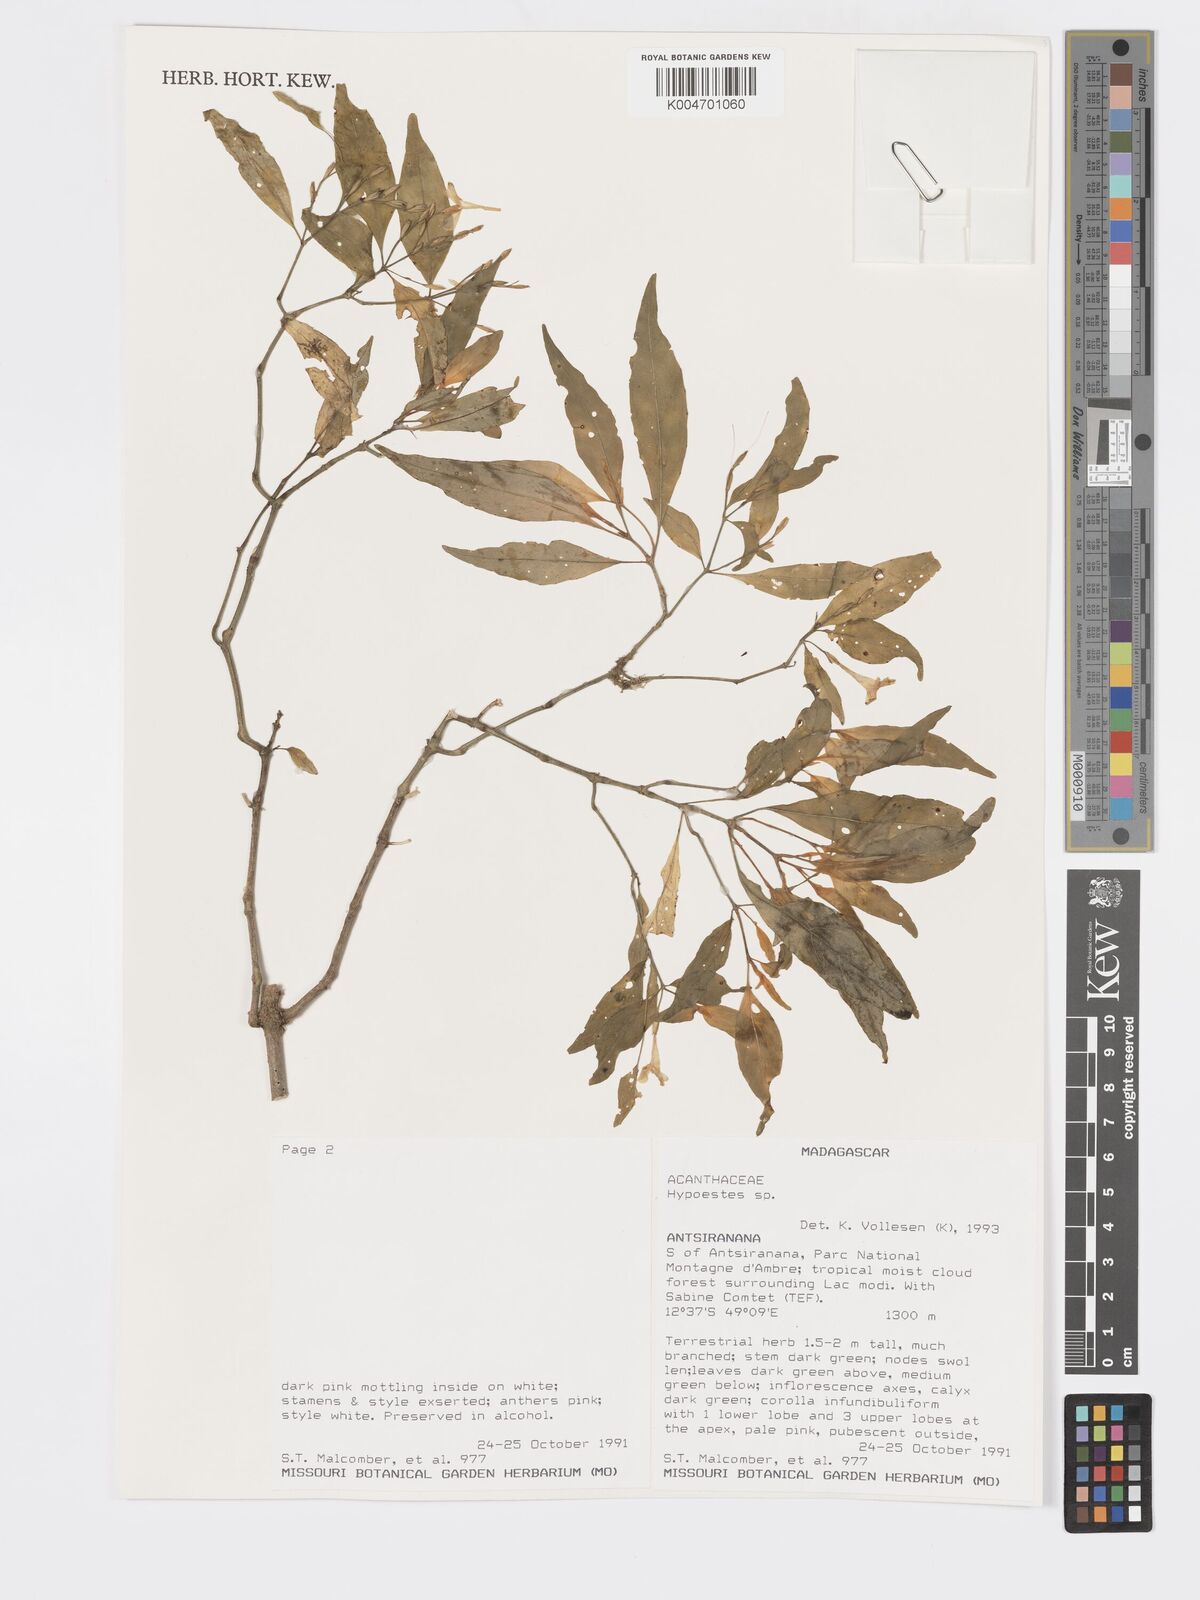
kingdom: Plantae
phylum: Tracheophyta
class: Magnoliopsida
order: Lamiales
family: Acanthaceae
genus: Hypoestes
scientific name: Hypoestes
